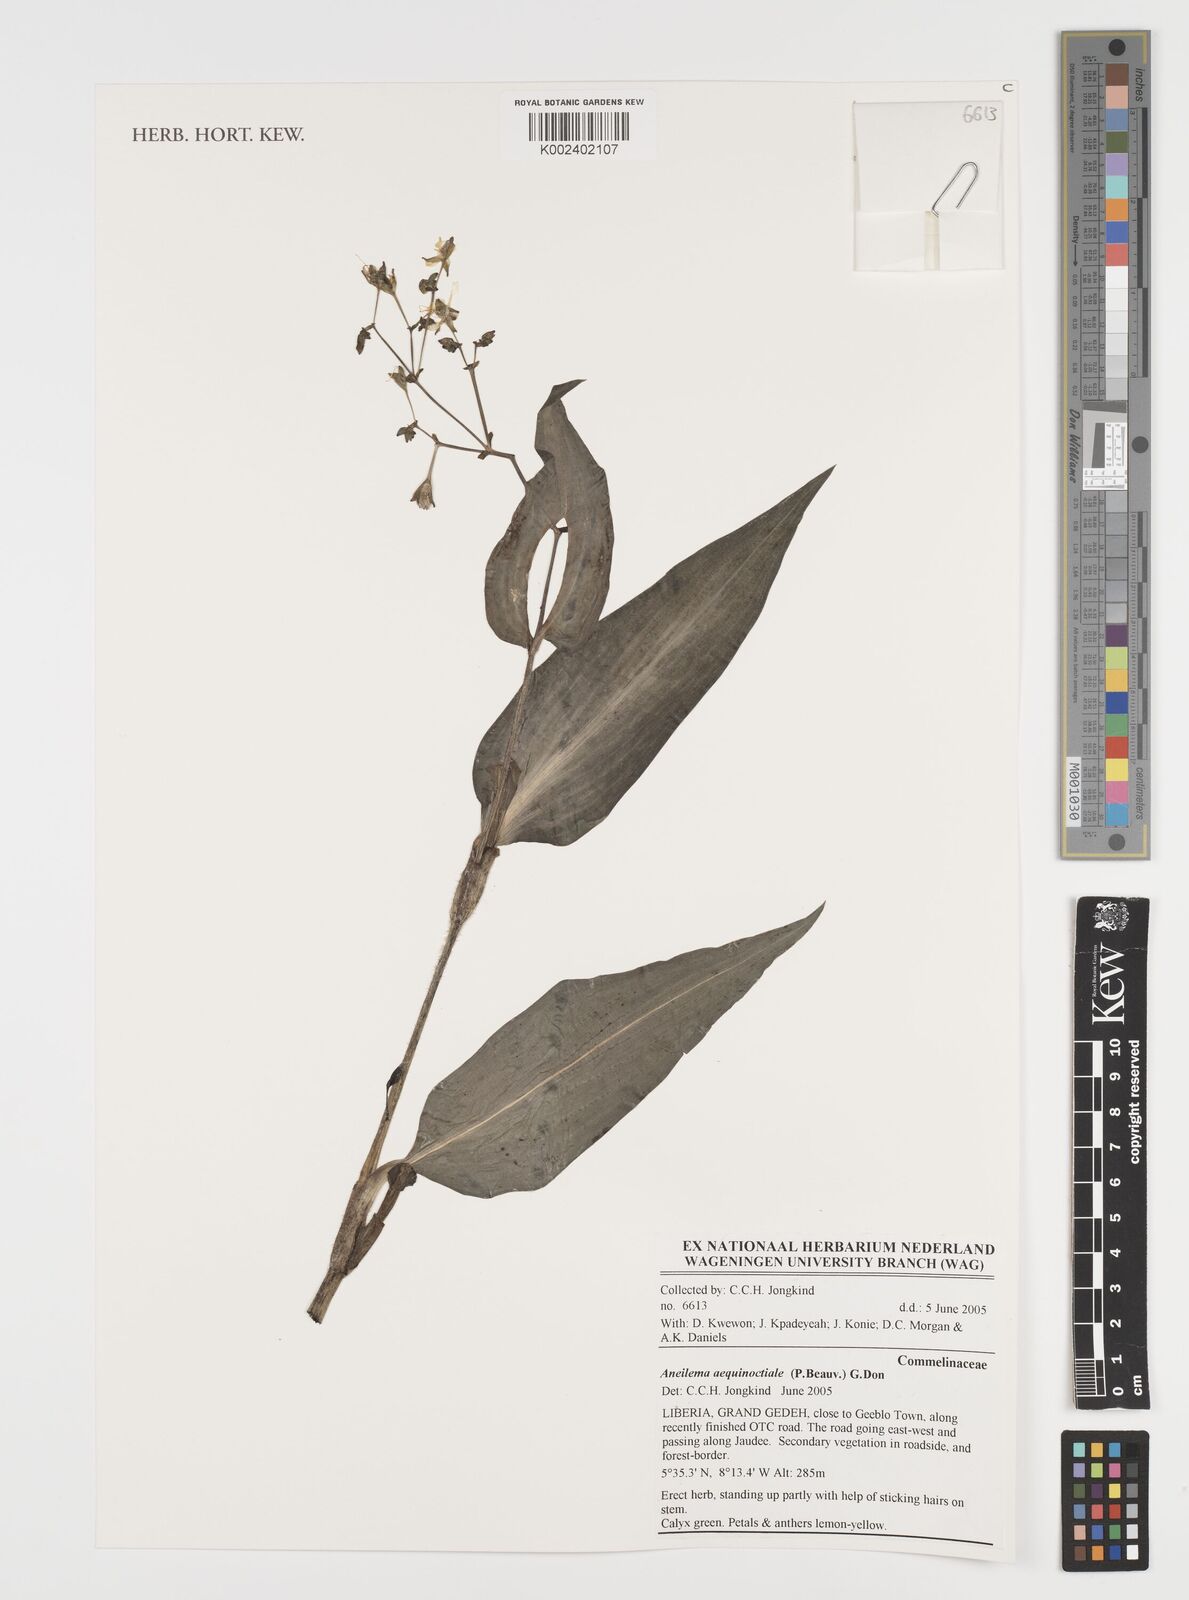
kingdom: Plantae
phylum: Tracheophyta
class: Liliopsida
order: Commelinales
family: Commelinaceae
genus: Aneilema
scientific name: Aneilema aequinoctiale
